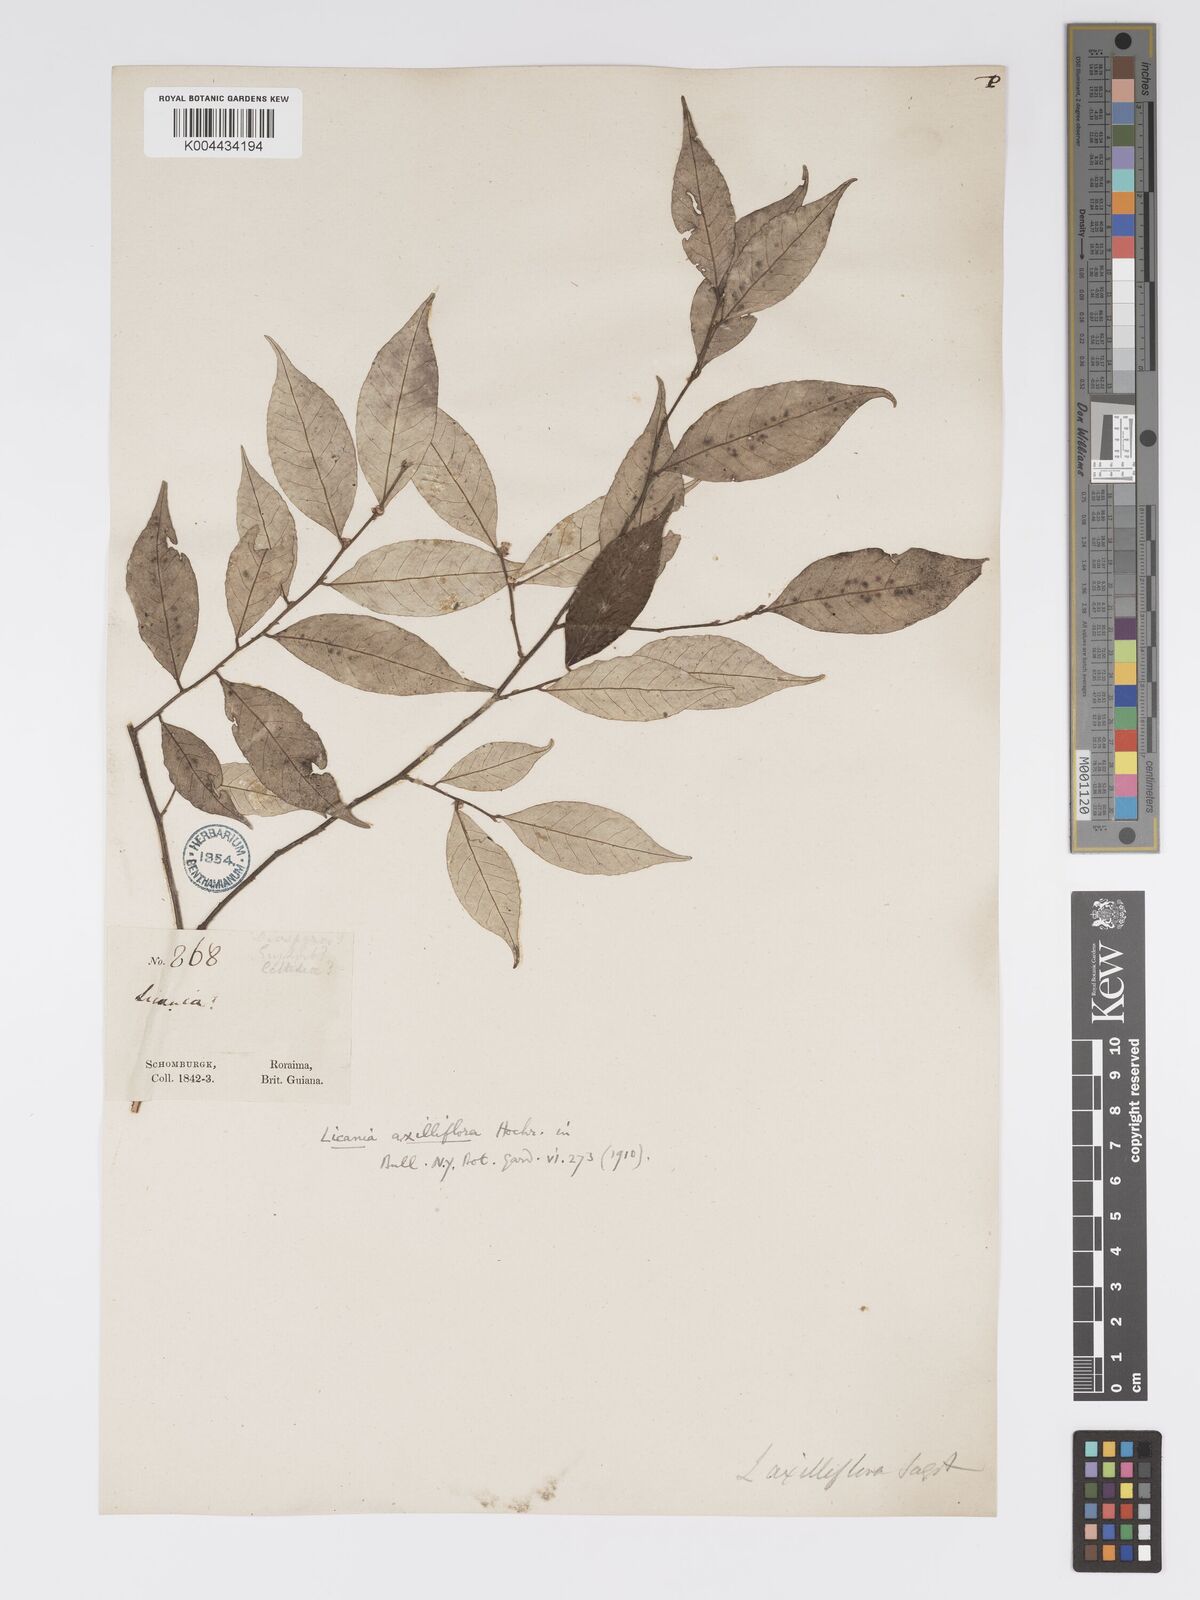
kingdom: Plantae
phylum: Tracheophyta
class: Magnoliopsida
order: Malpighiales
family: Chrysobalanaceae
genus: Licania
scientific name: Licania leptostachya
